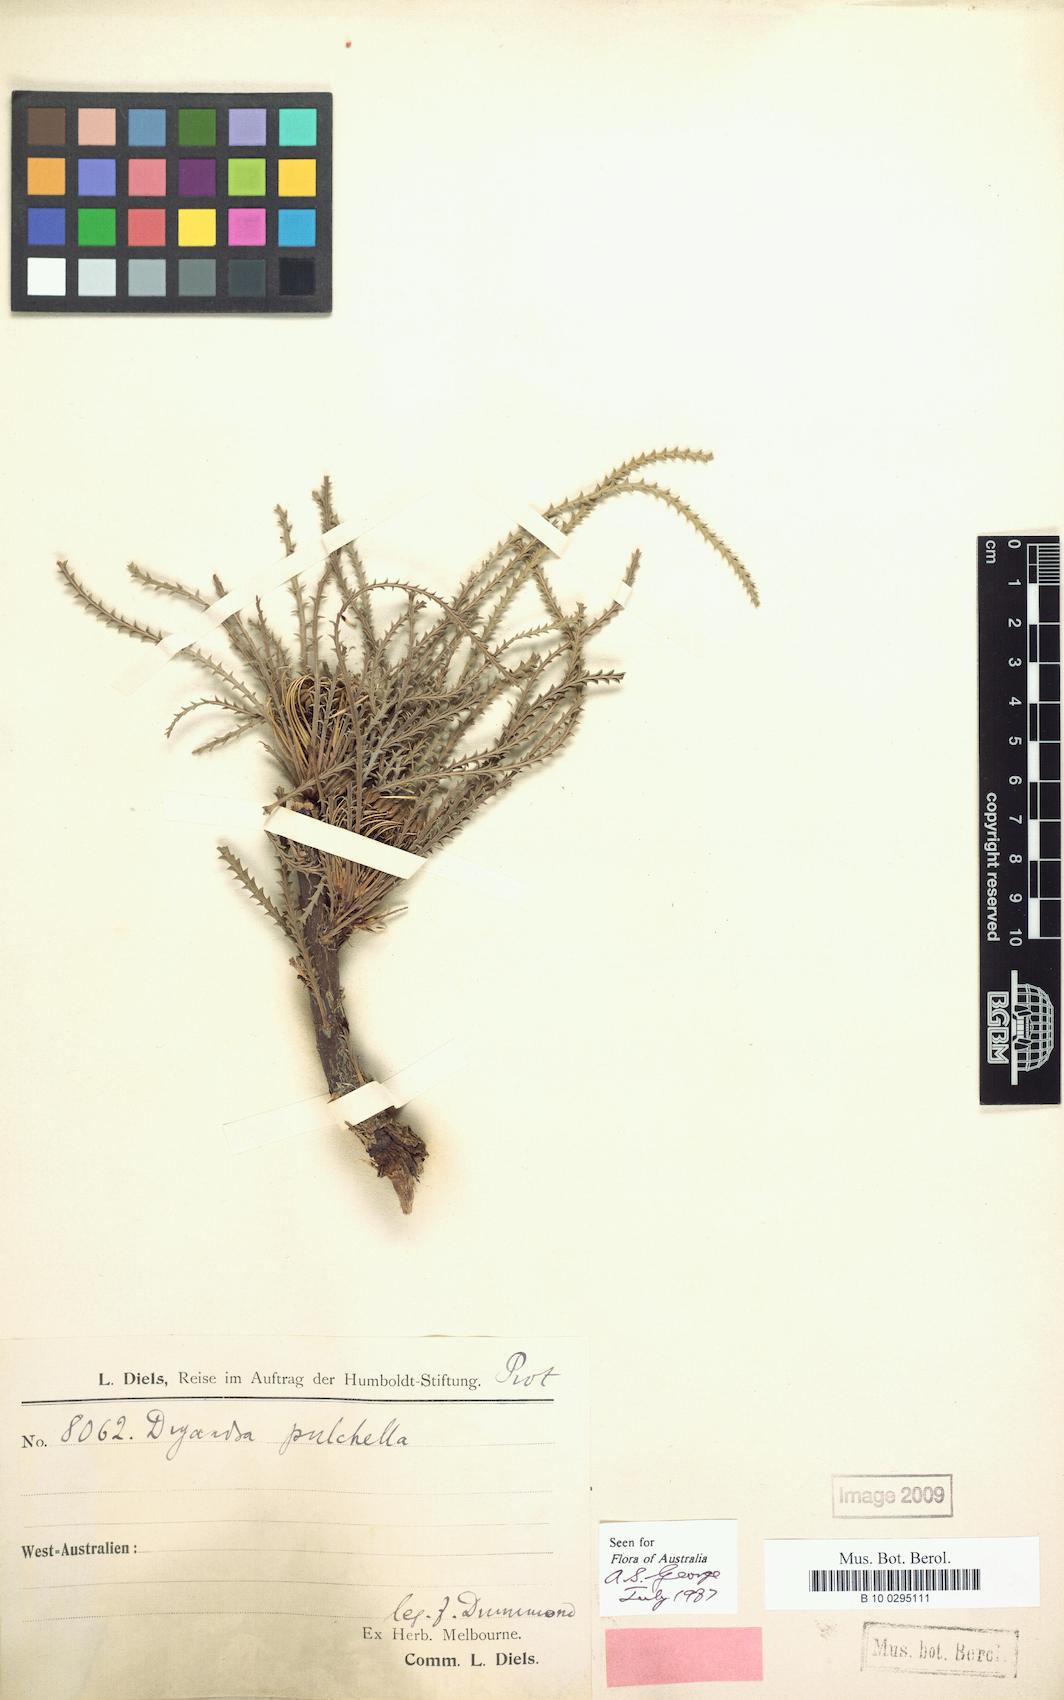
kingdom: Plantae
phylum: Tracheophyta
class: Magnoliopsida
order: Proteales
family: Proteaceae
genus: Banksia
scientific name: Banksia bella
